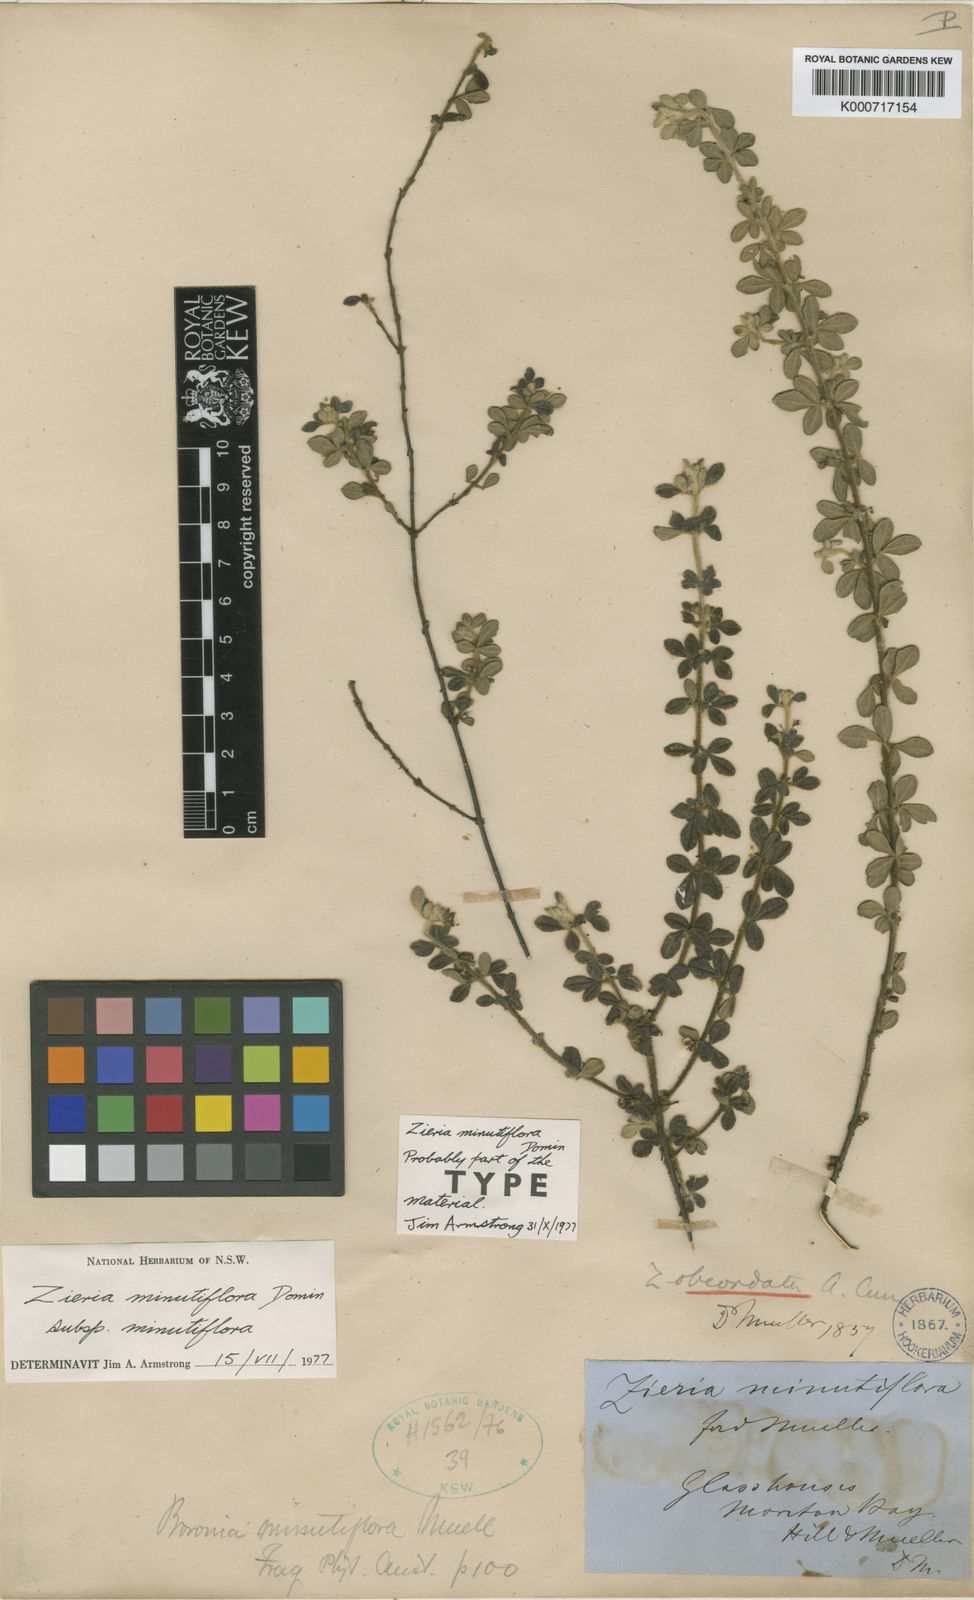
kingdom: Plantae
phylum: Tracheophyta
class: Magnoliopsida
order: Sapindales
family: Rutaceae
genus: Zieria
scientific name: Zieria minutiflora
